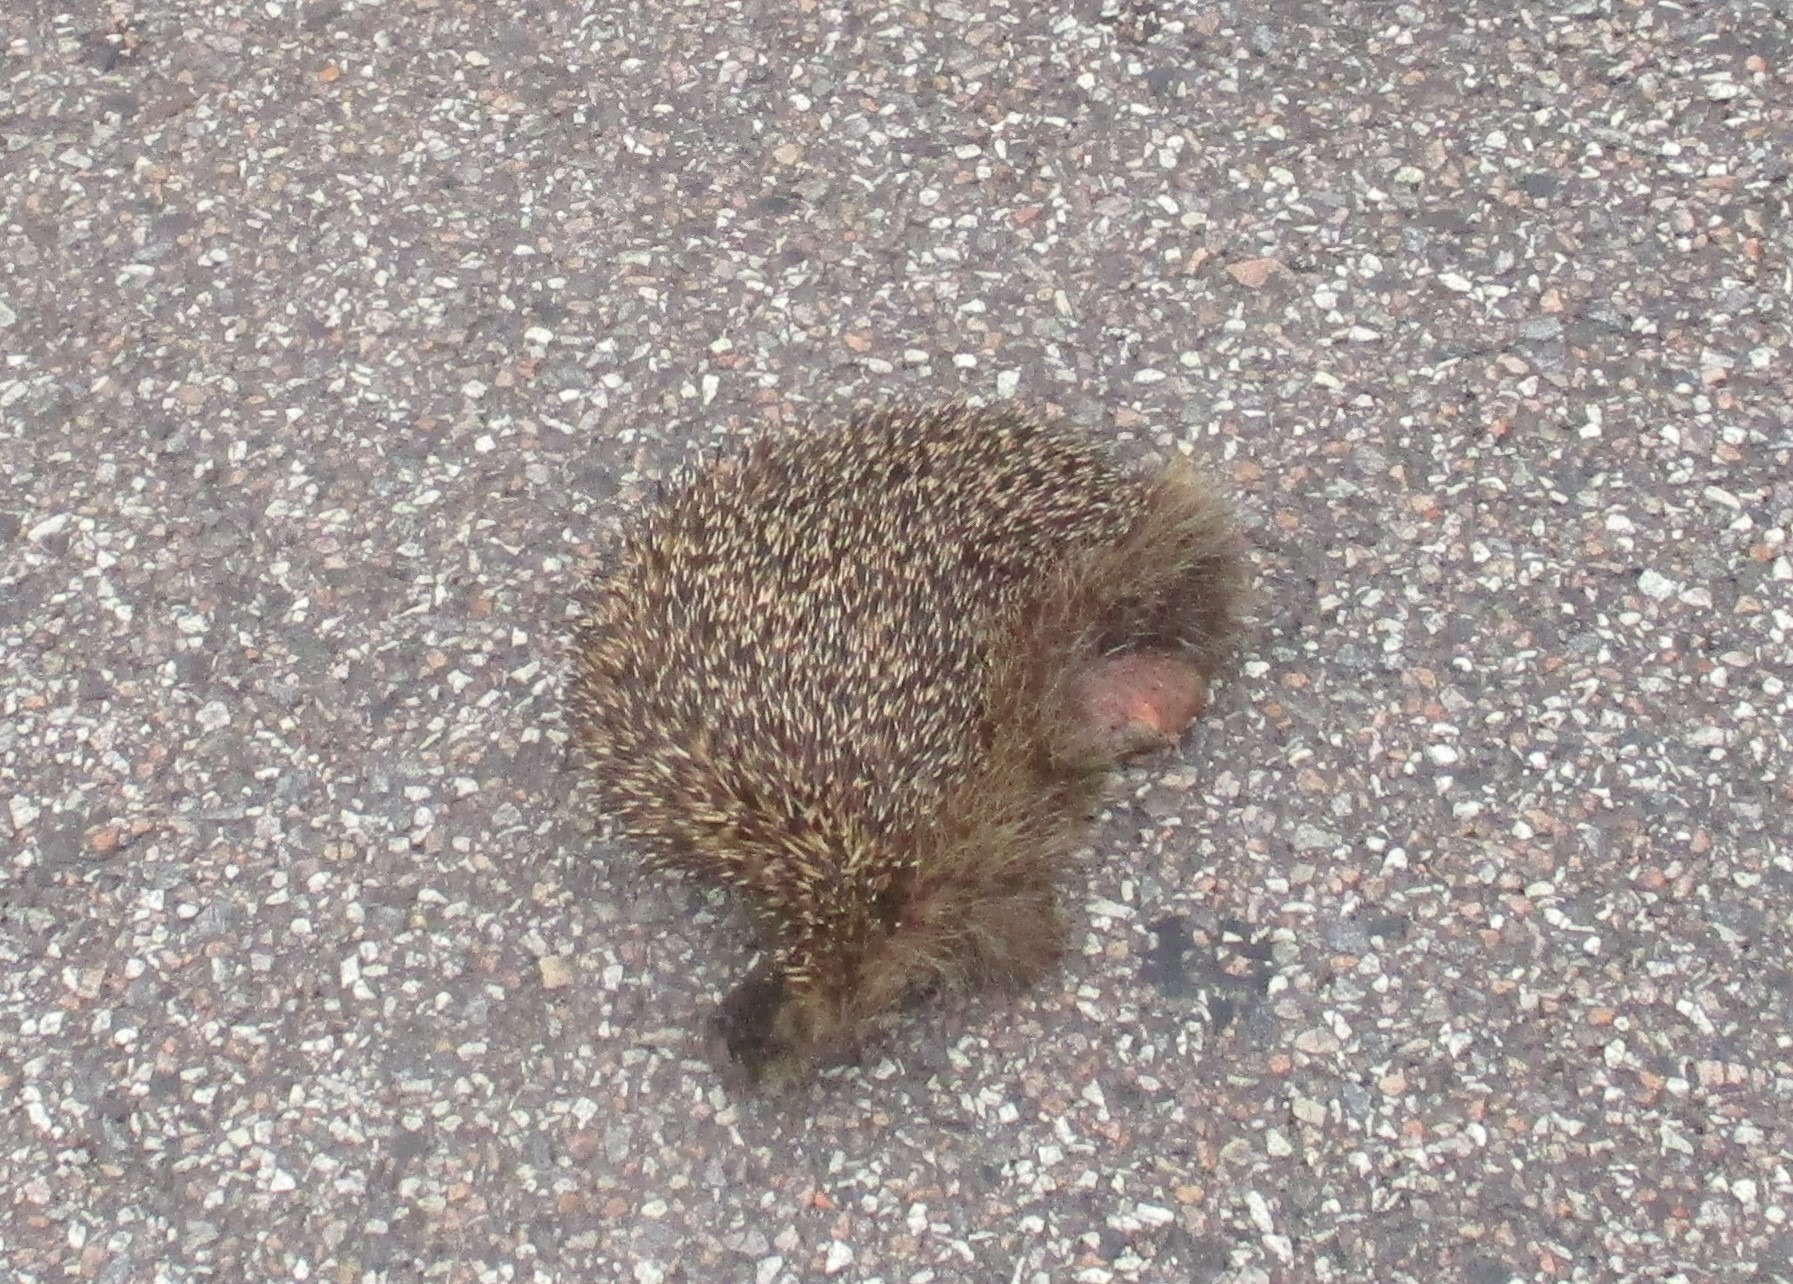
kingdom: Animalia
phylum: Chordata
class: Mammalia
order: Erinaceomorpha
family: Erinaceidae
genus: Erinaceus
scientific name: Erinaceus europaeus
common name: Pindsvin
